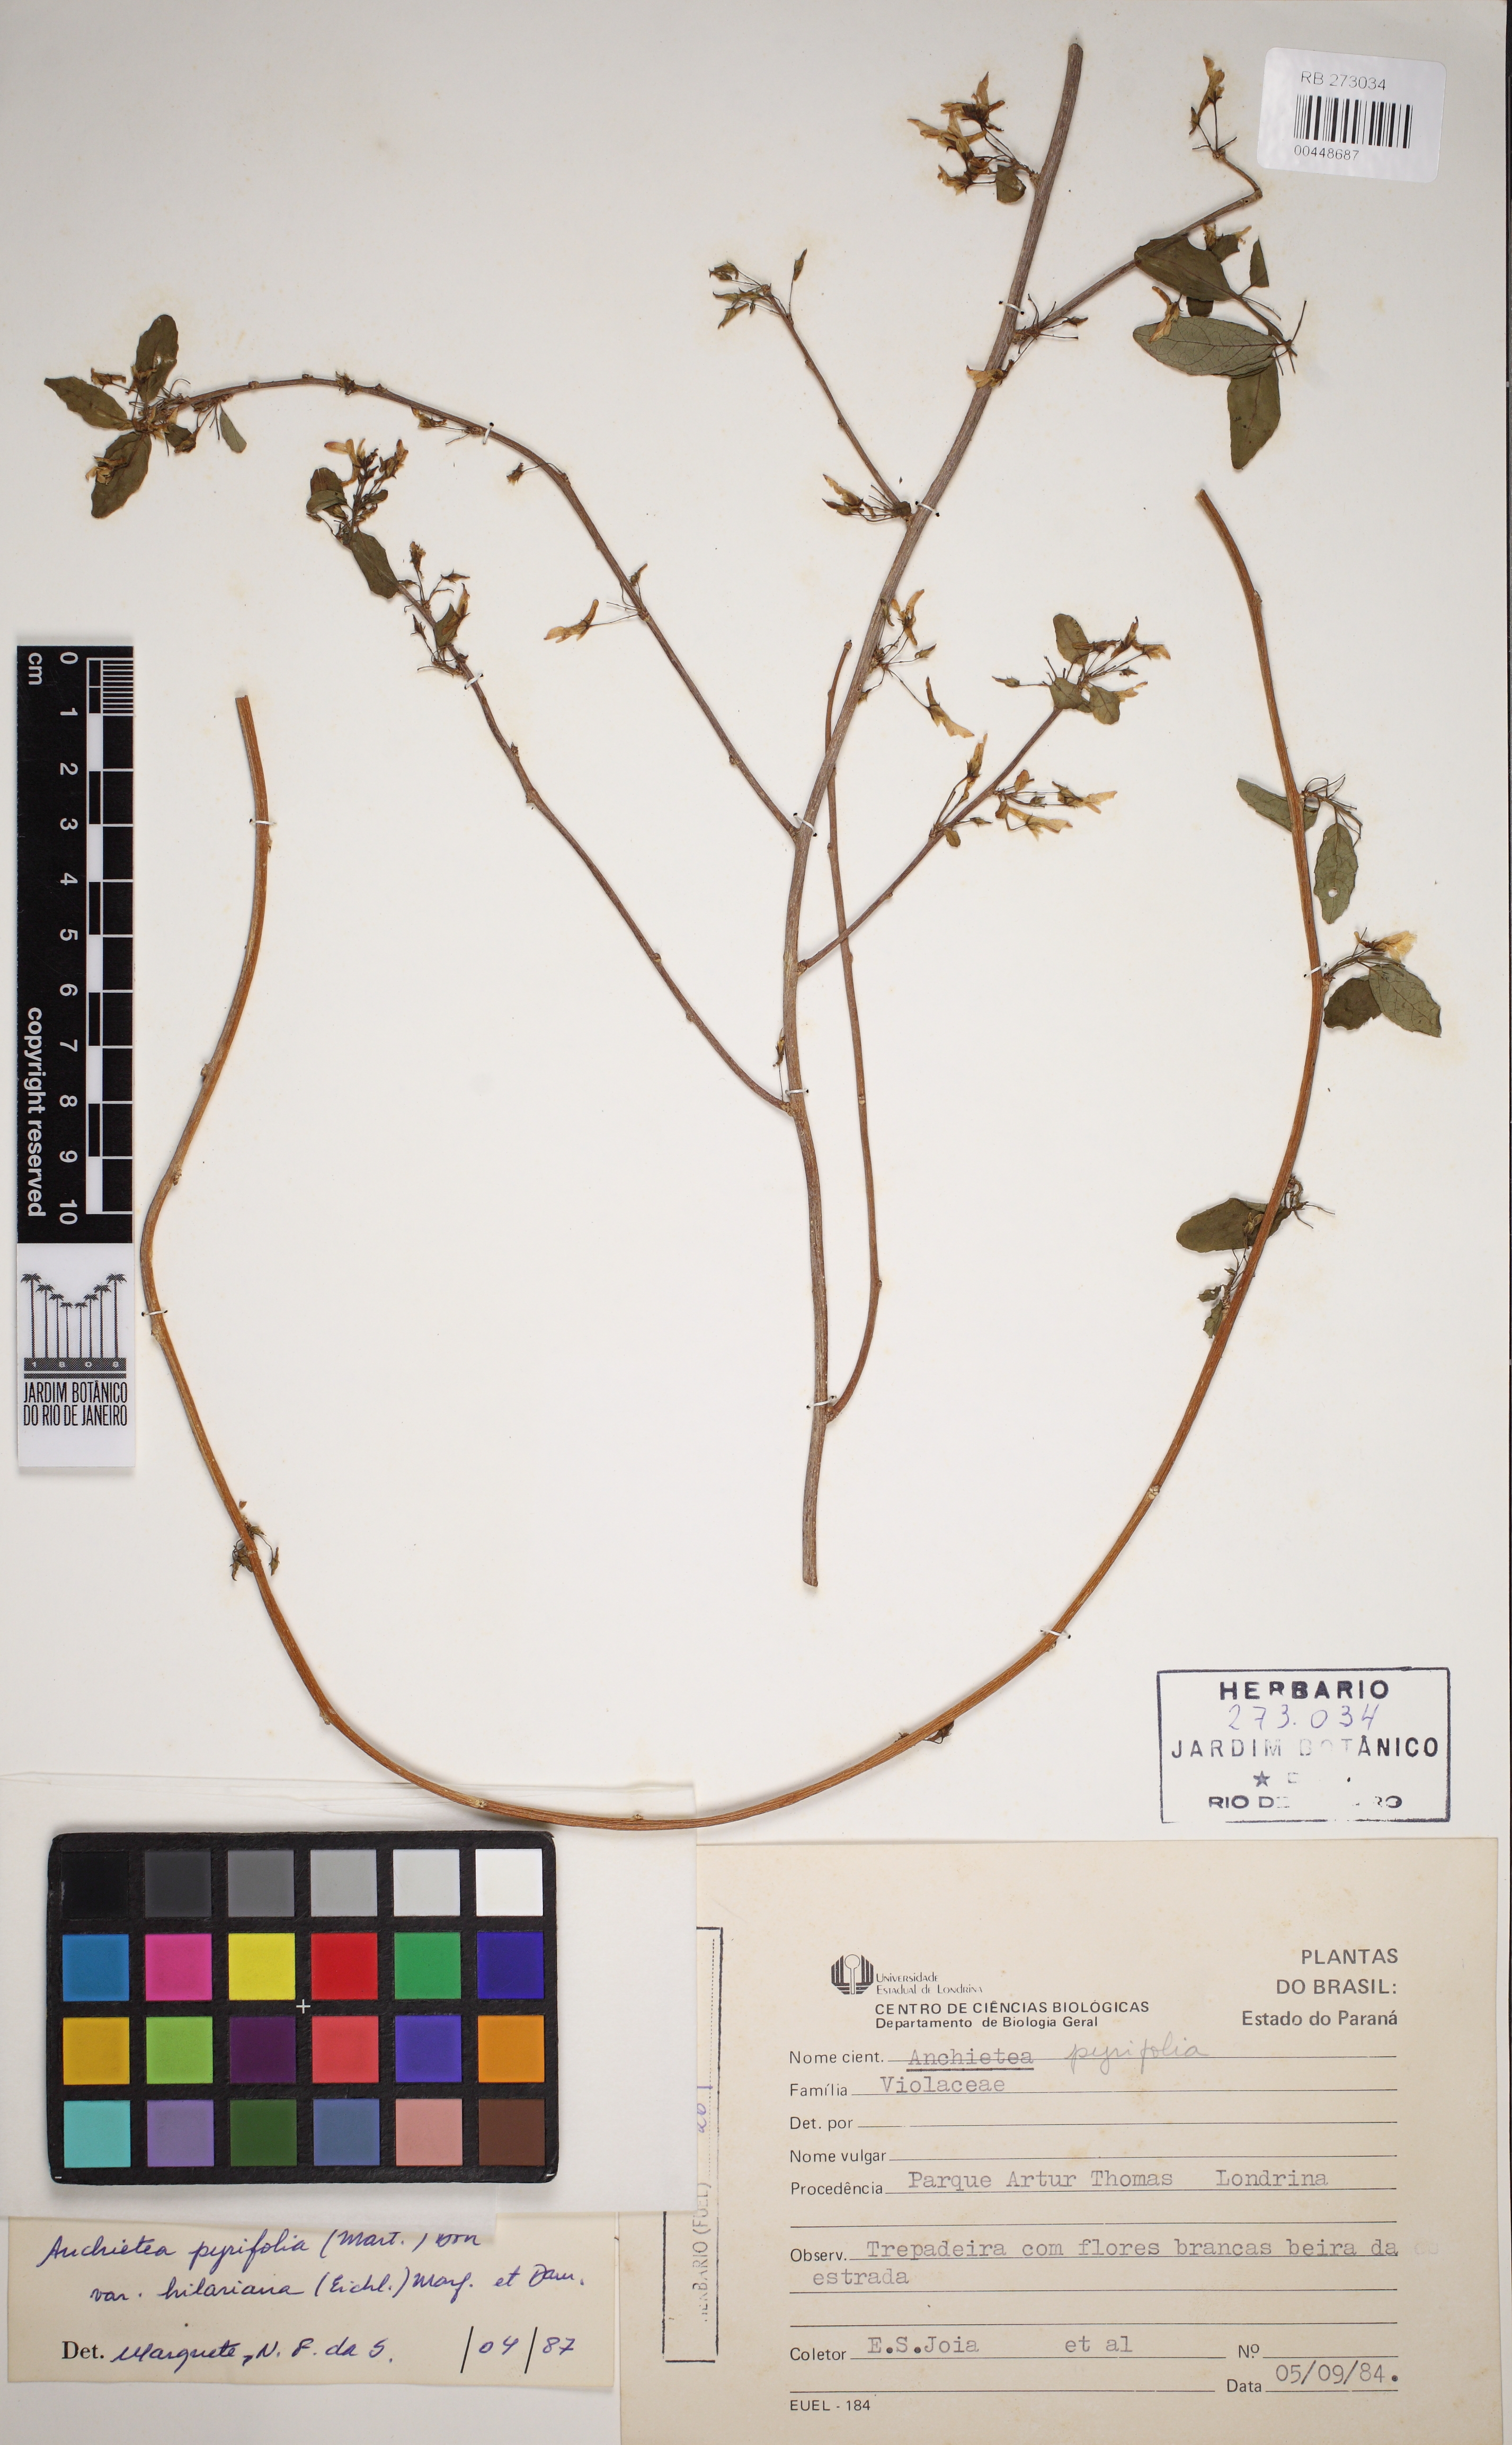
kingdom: Plantae
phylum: Tracheophyta
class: Magnoliopsida
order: Malpighiales
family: Violaceae
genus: Anchietea
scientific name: Anchietea pyrifolia
